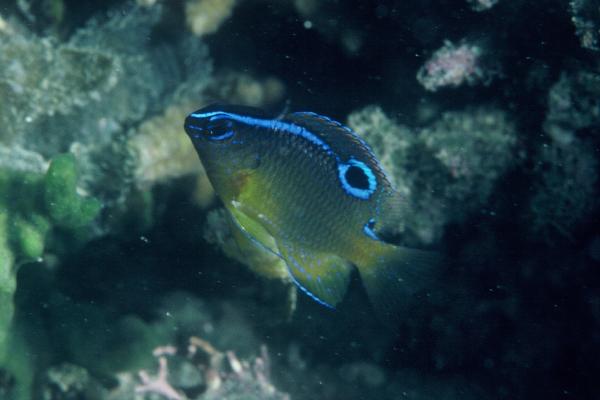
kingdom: Animalia
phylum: Chordata
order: Perciformes
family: Pomacentridae
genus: Chrysiptera
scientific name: Chrysiptera unimaculata
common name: Onespot demoiselle
